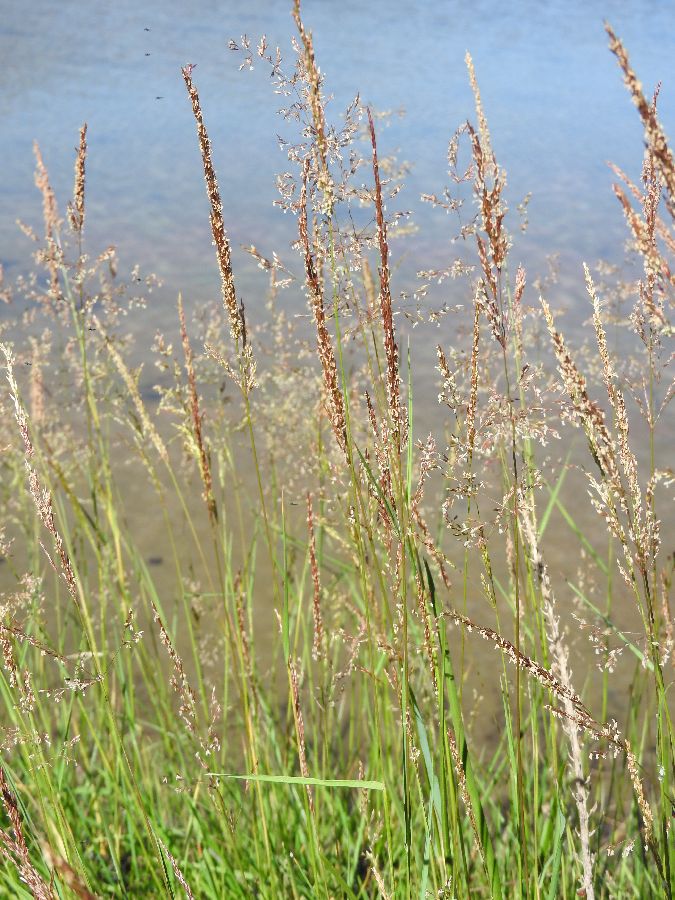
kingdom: Plantae
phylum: Tracheophyta
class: Liliopsida
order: Poales
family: Poaceae
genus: Agrostis
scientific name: Agrostis stolonifera
